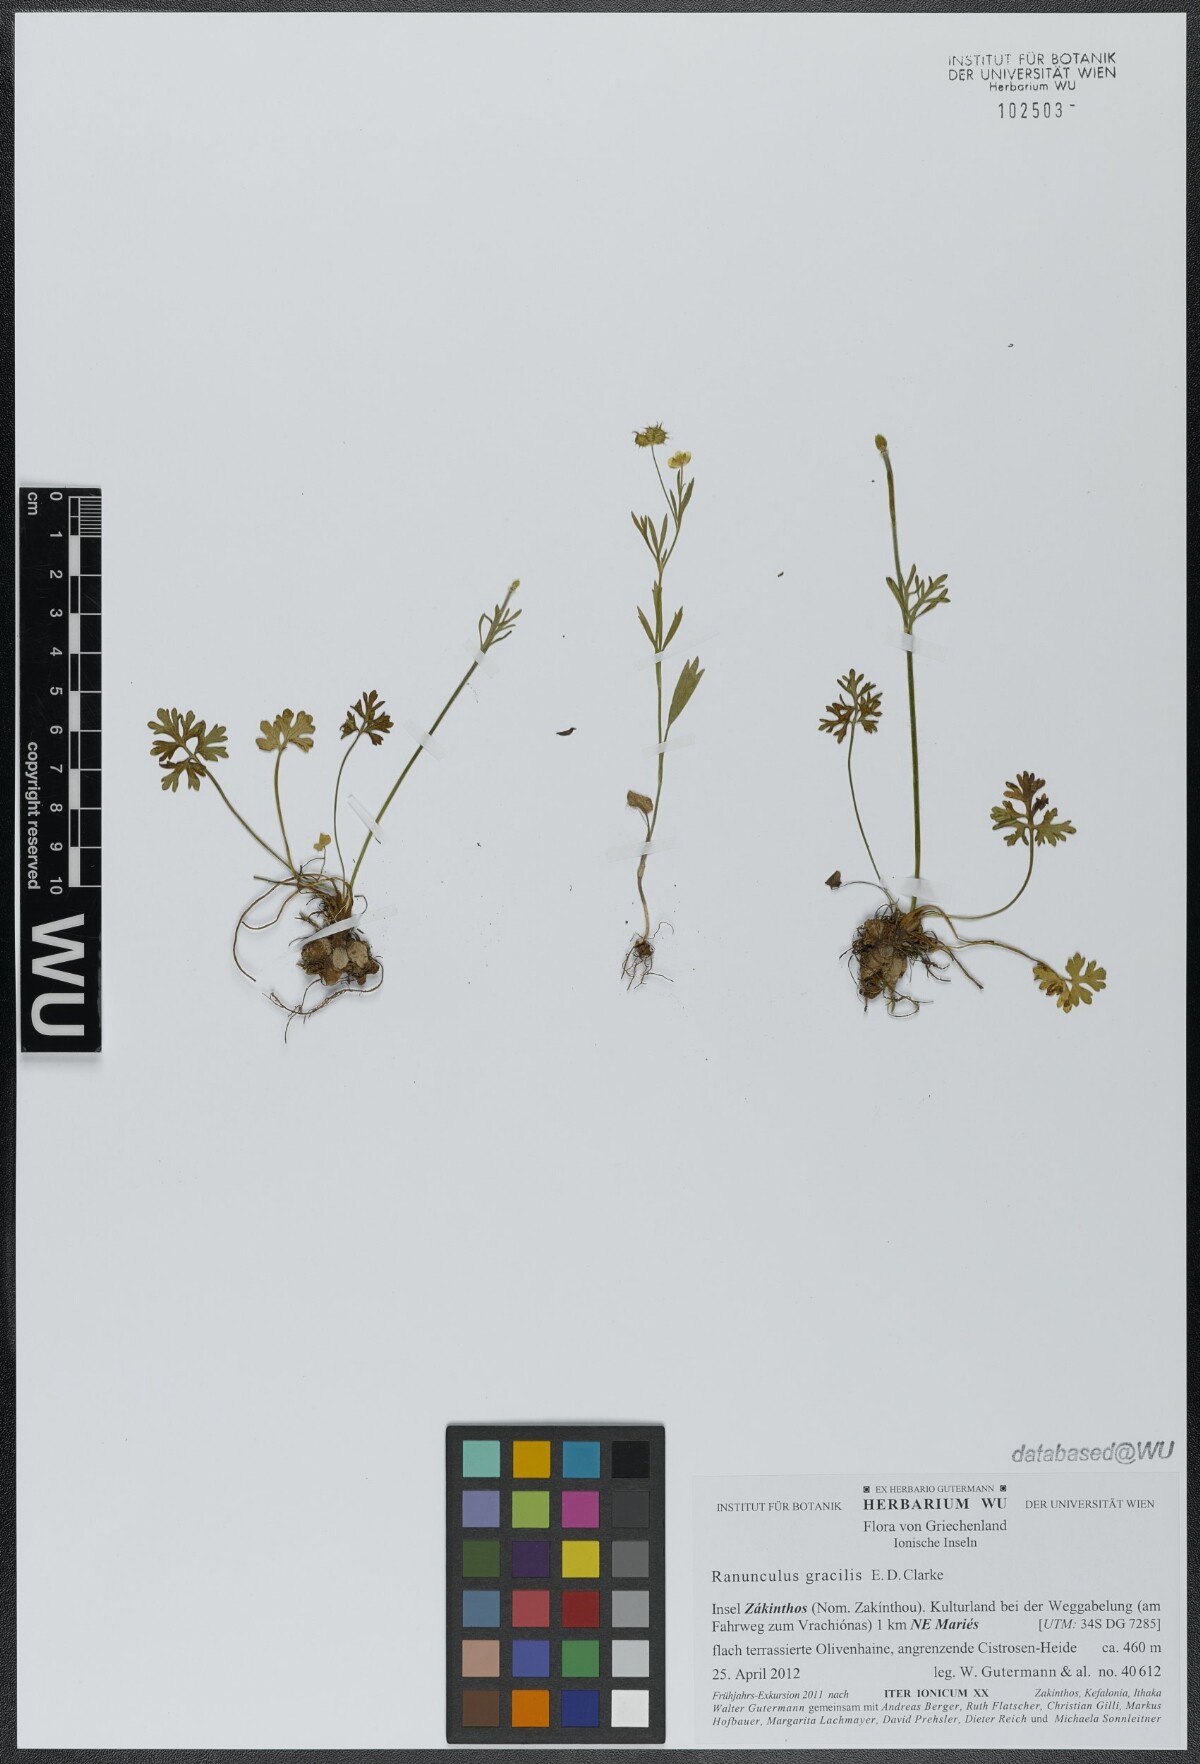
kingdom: Plantae
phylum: Tracheophyta
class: Magnoliopsida
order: Ranunculales
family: Ranunculaceae
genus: Ranunculus
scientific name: Ranunculus gracilis
